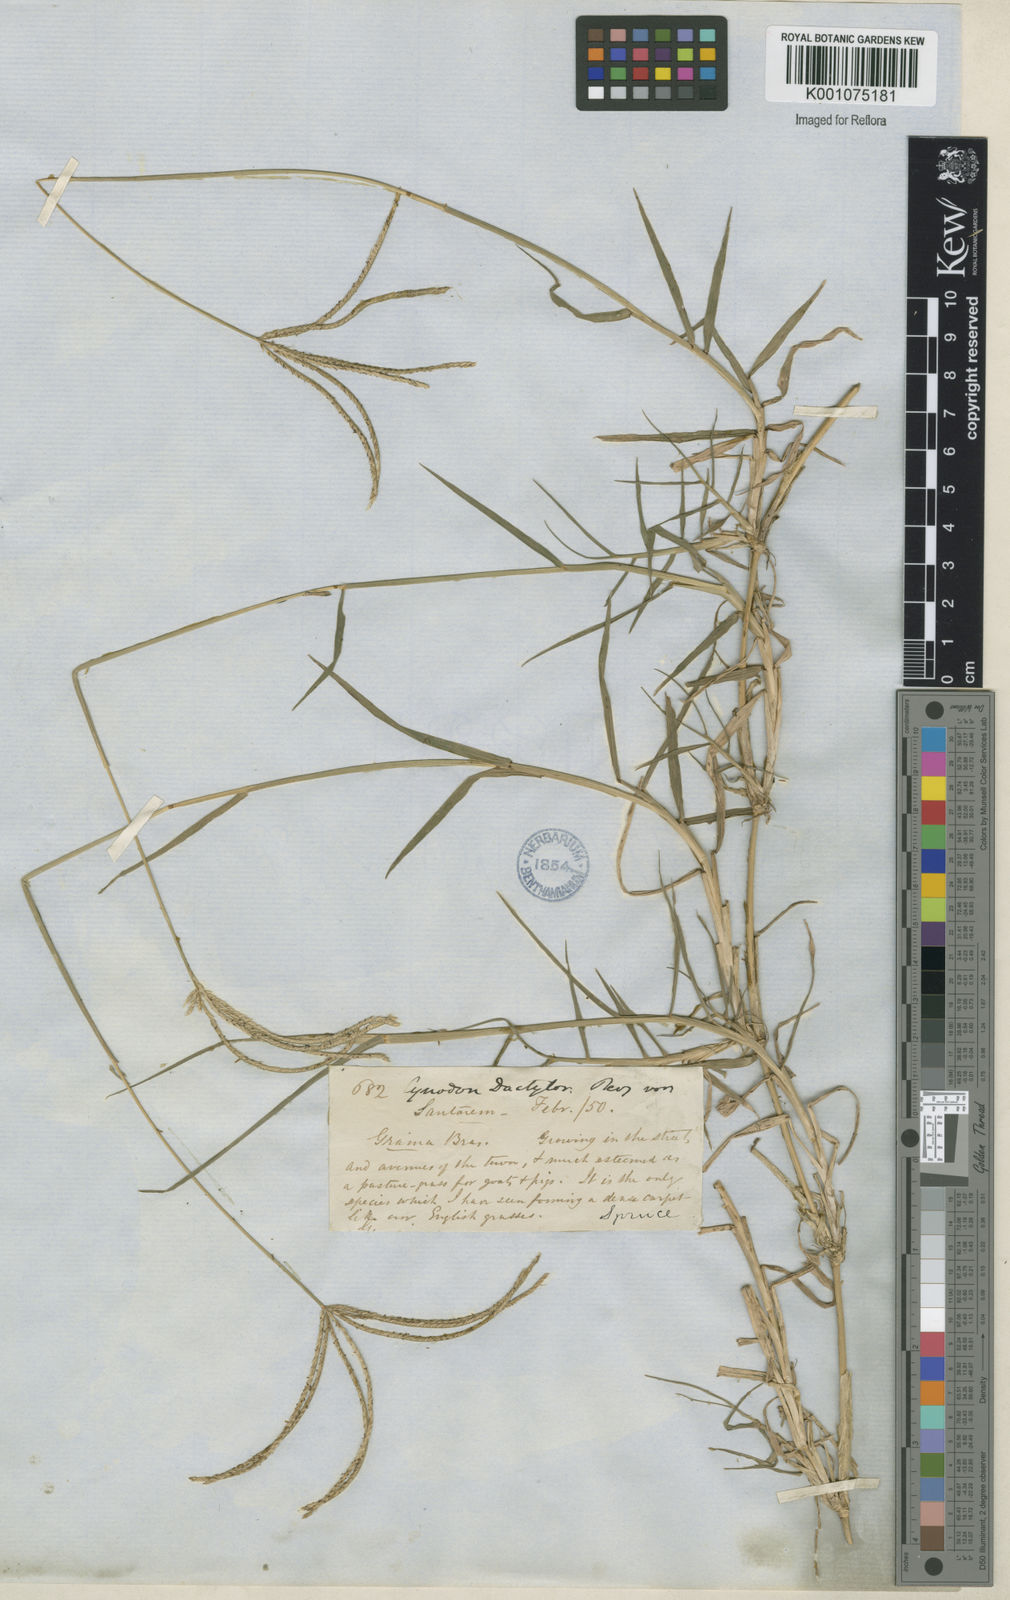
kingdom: Plantae
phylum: Tracheophyta
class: Liliopsida
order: Poales
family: Poaceae
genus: Cynodon
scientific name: Cynodon dactylon
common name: Bermuda grass
